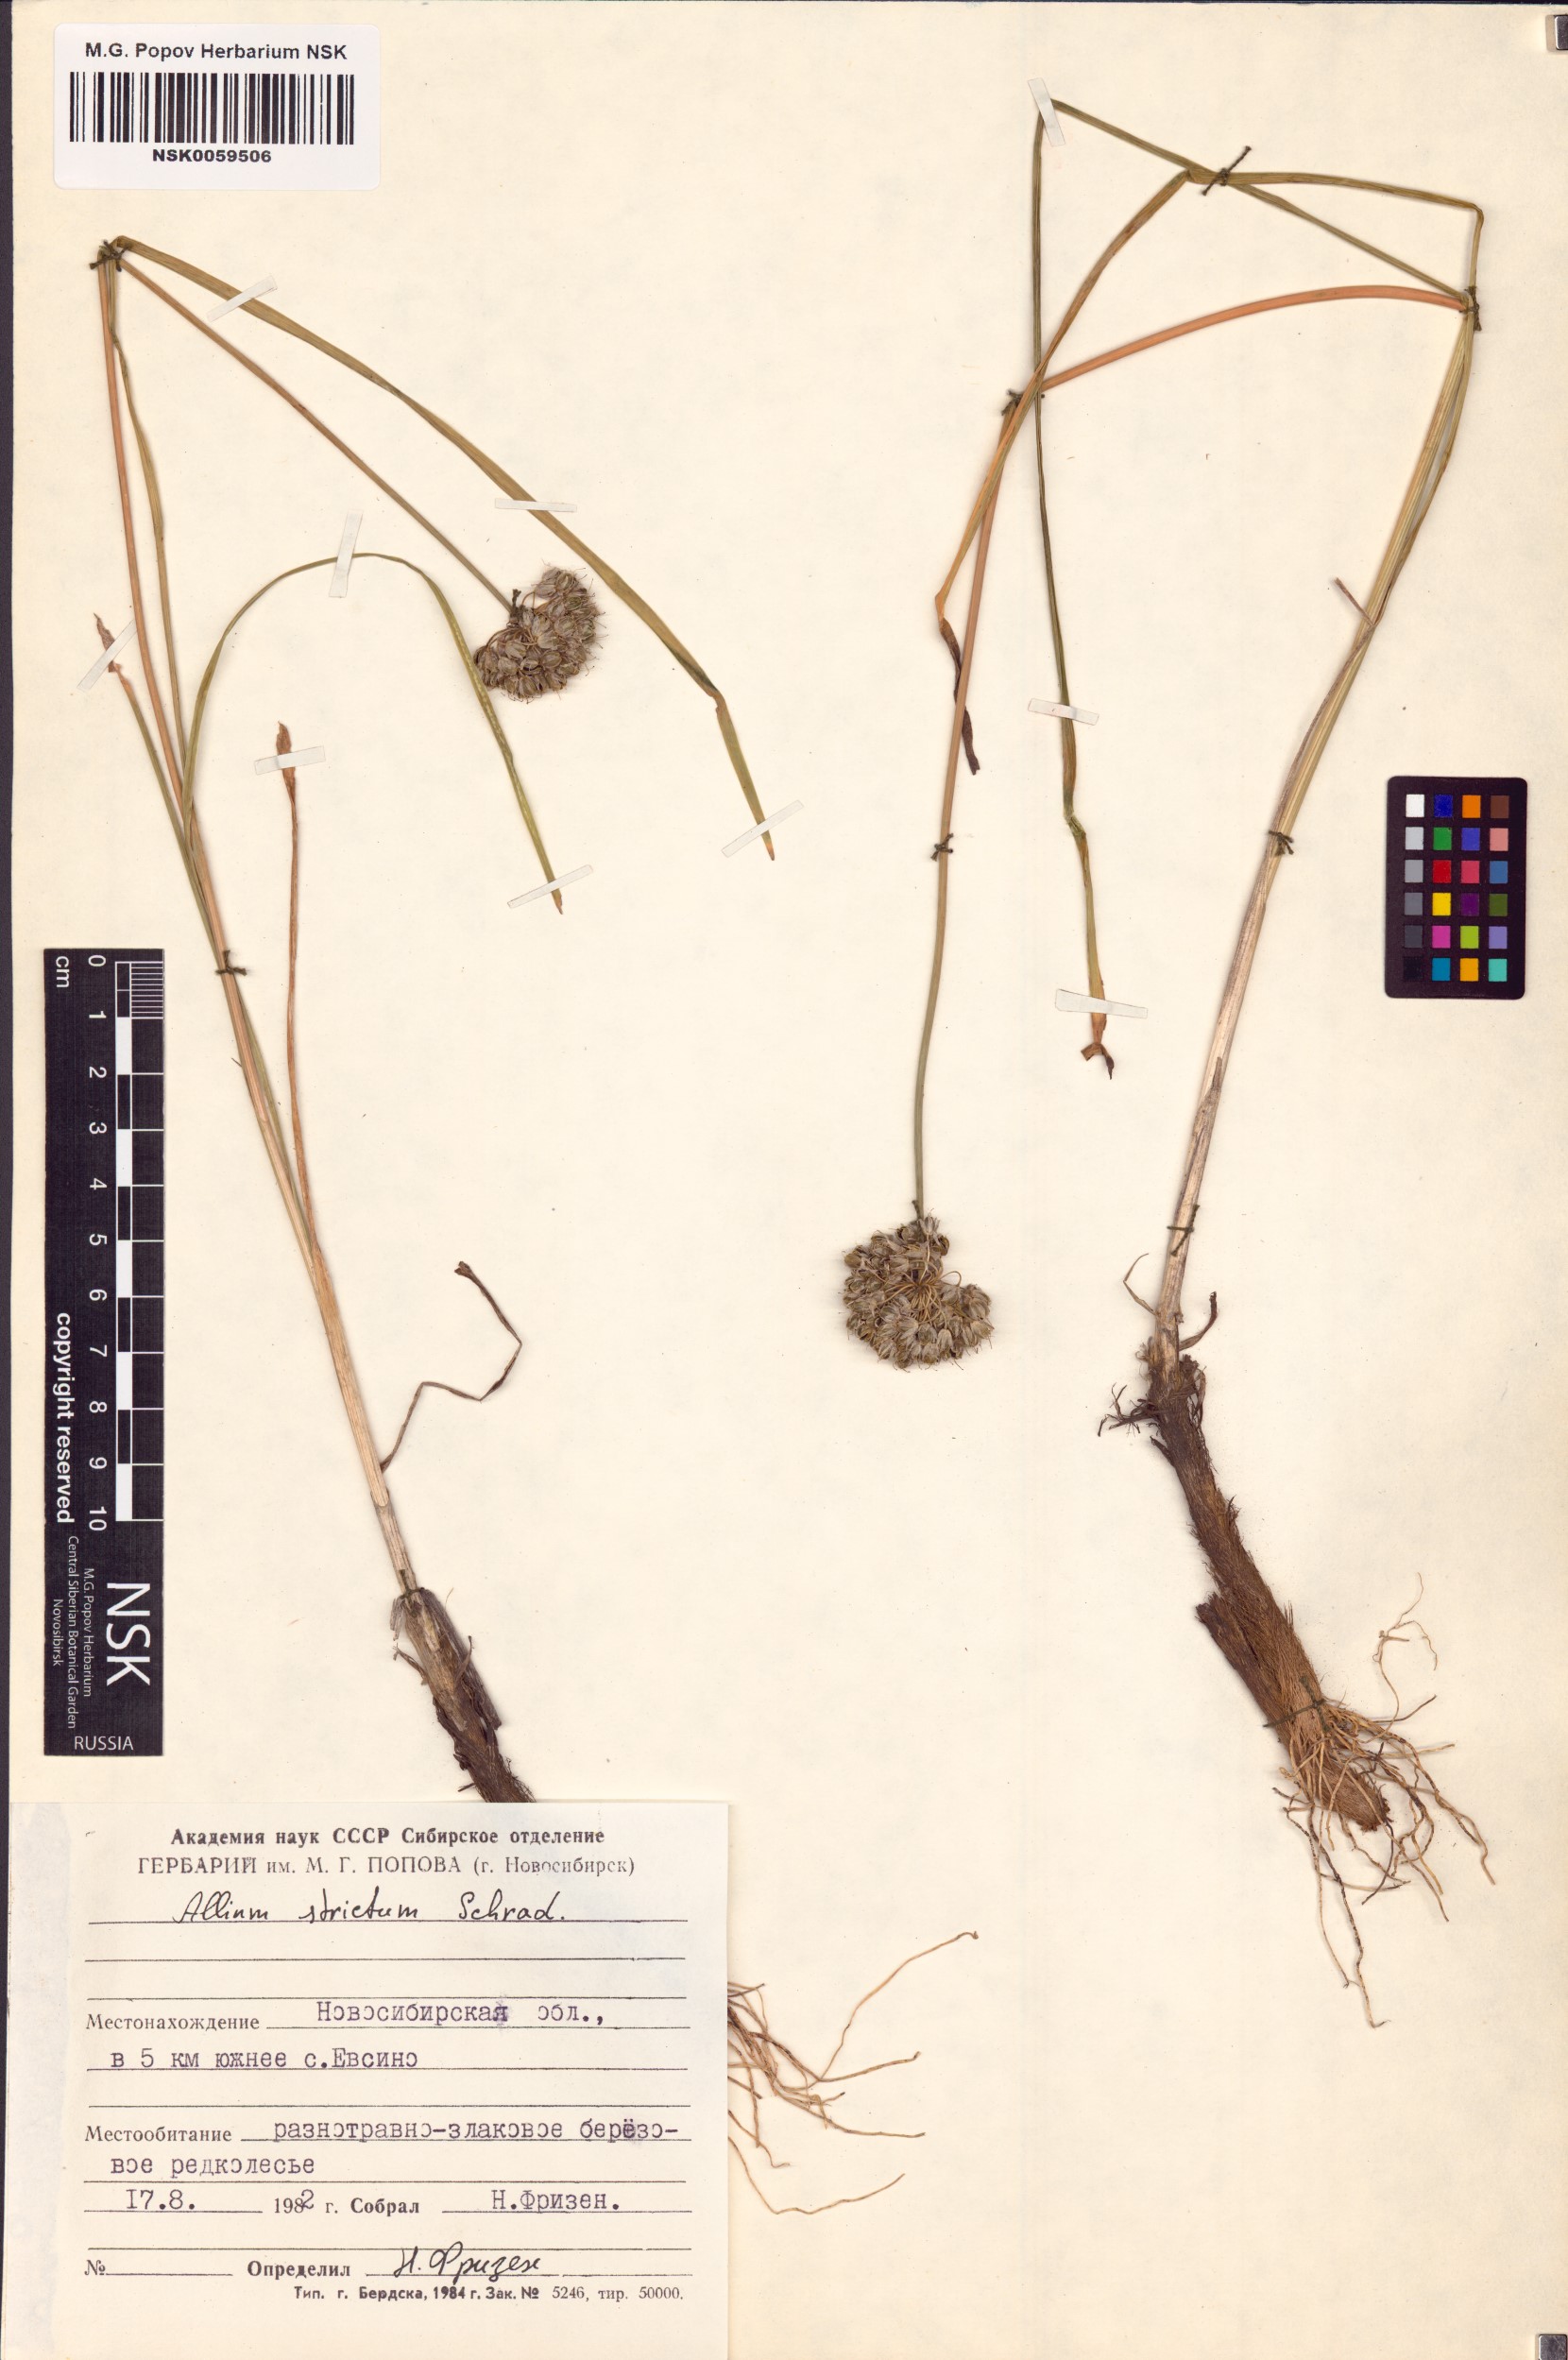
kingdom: Plantae
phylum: Tracheophyta
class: Liliopsida
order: Asparagales
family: Amaryllidaceae
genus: Allium
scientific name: Allium strictum
